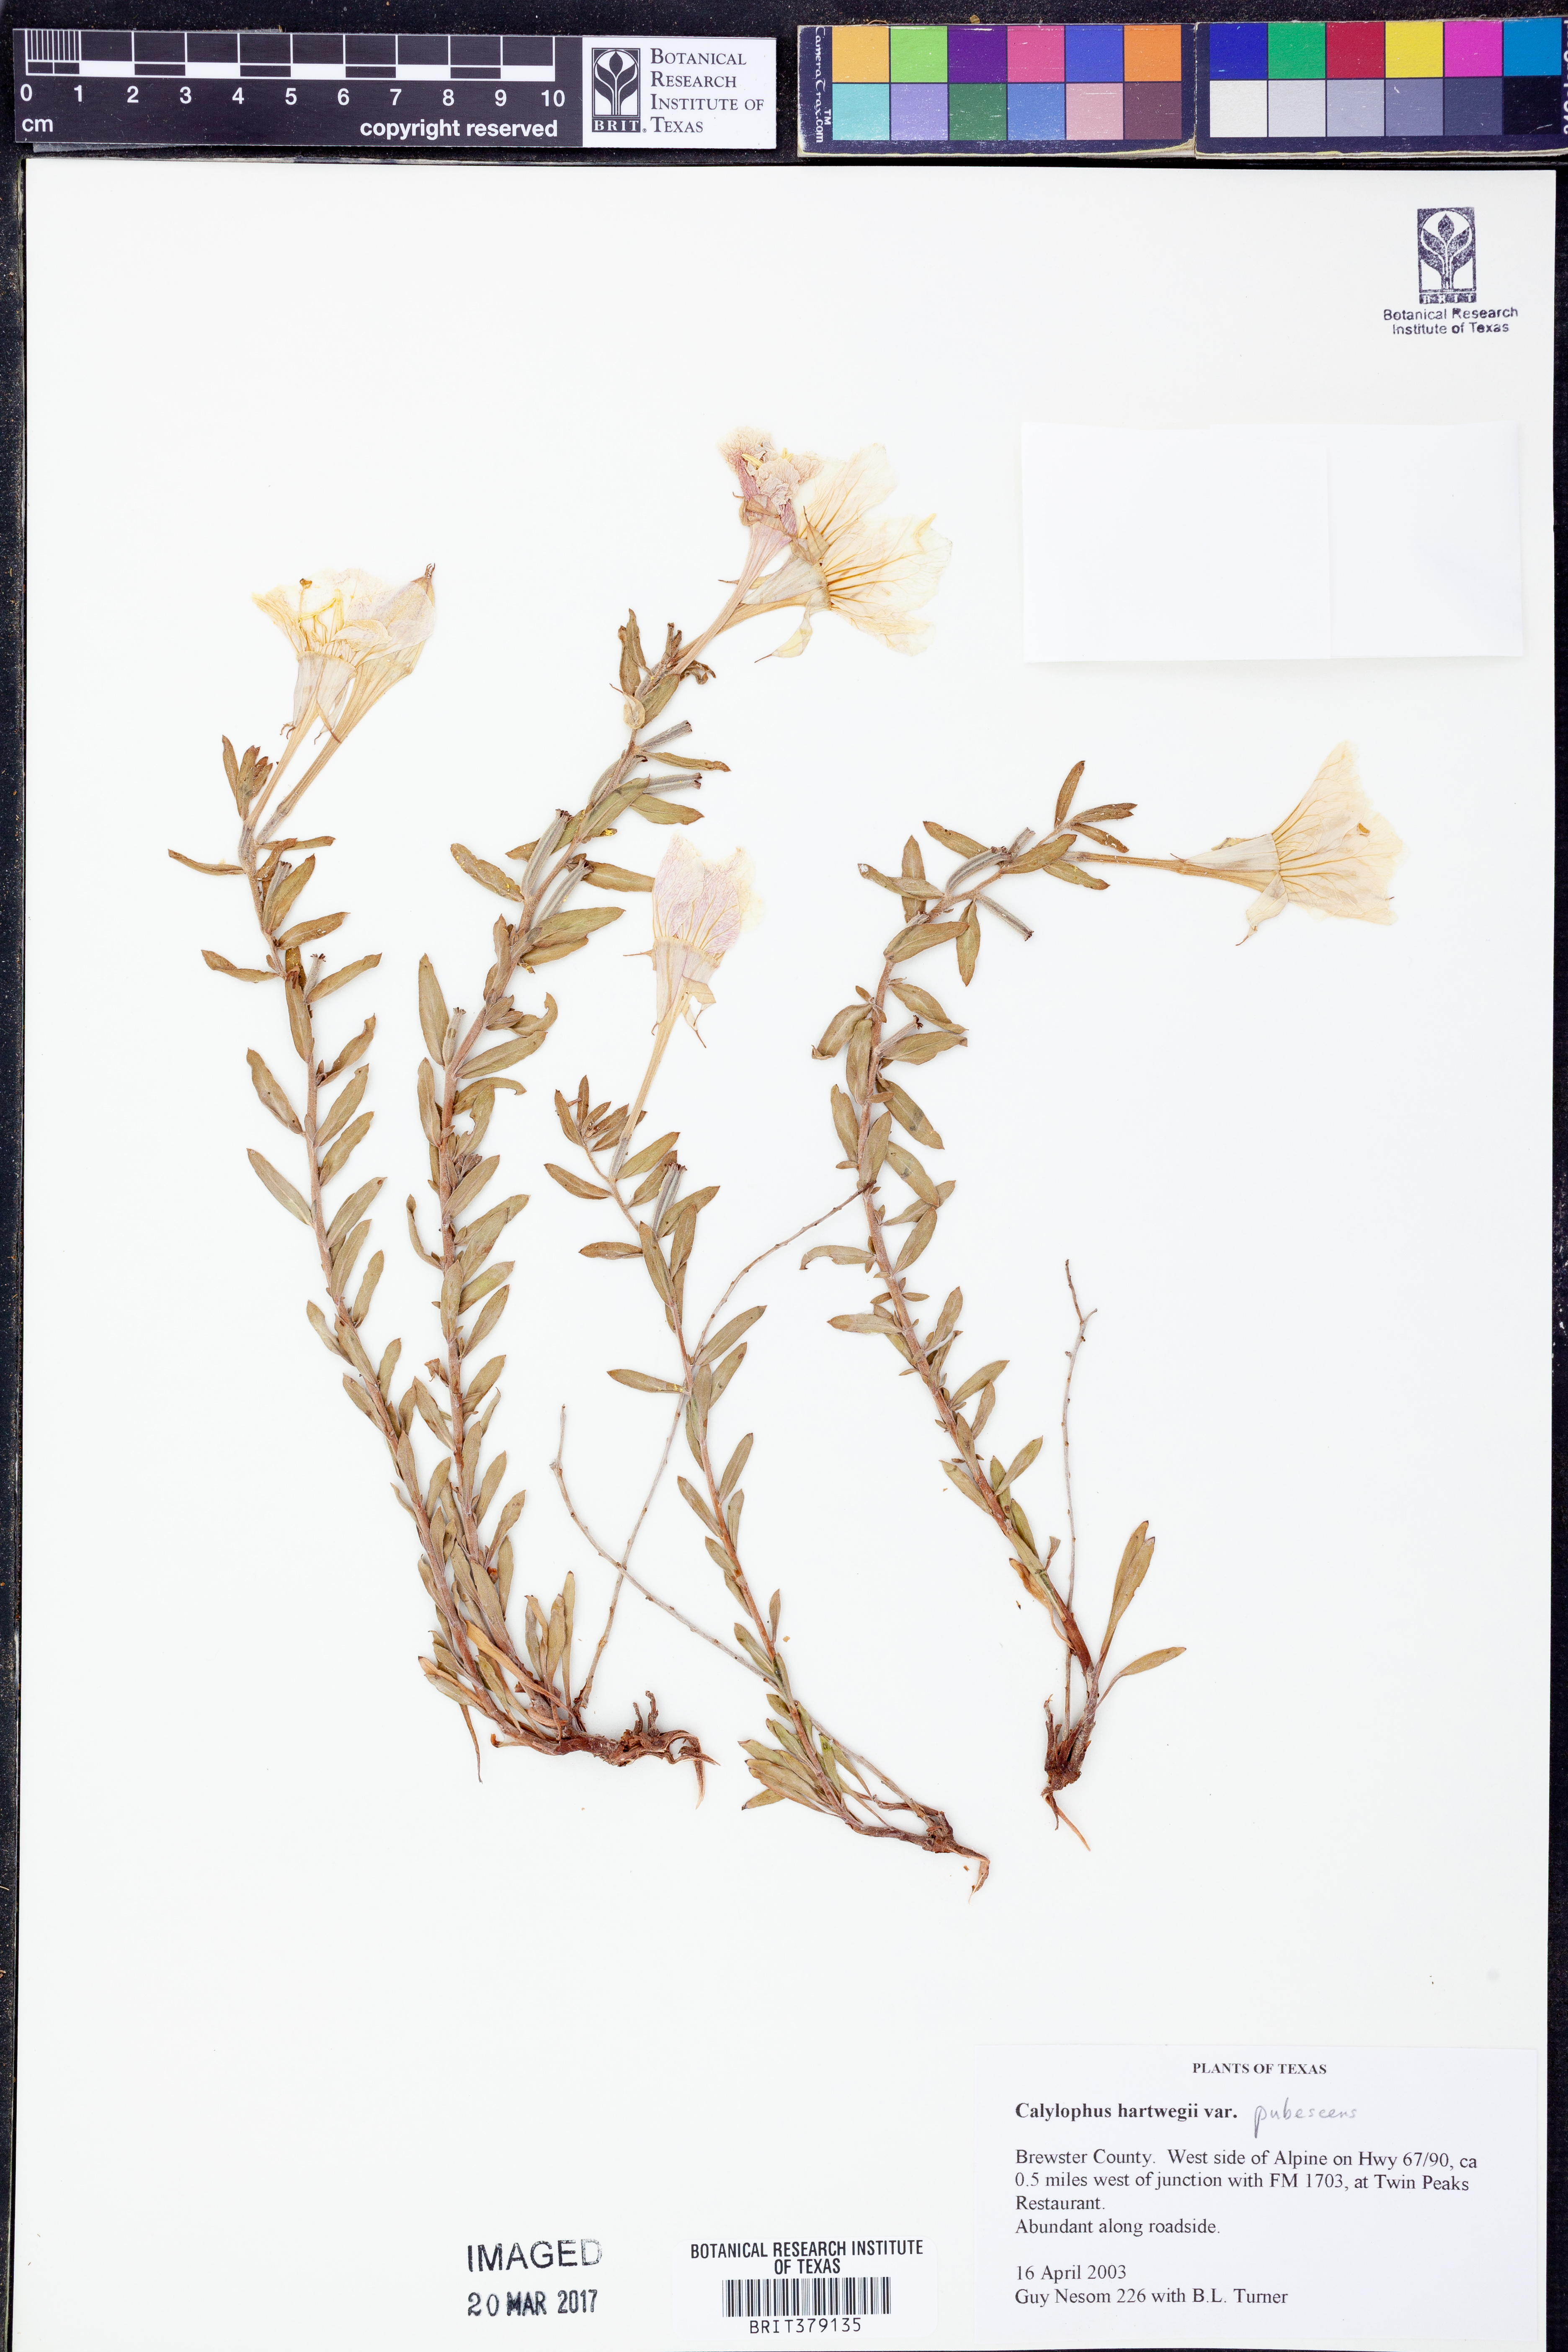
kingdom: Plantae
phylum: Tracheophyta
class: Magnoliopsida
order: Myrtales
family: Onagraceae
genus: Oenothera
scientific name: Oenothera hartwegii
